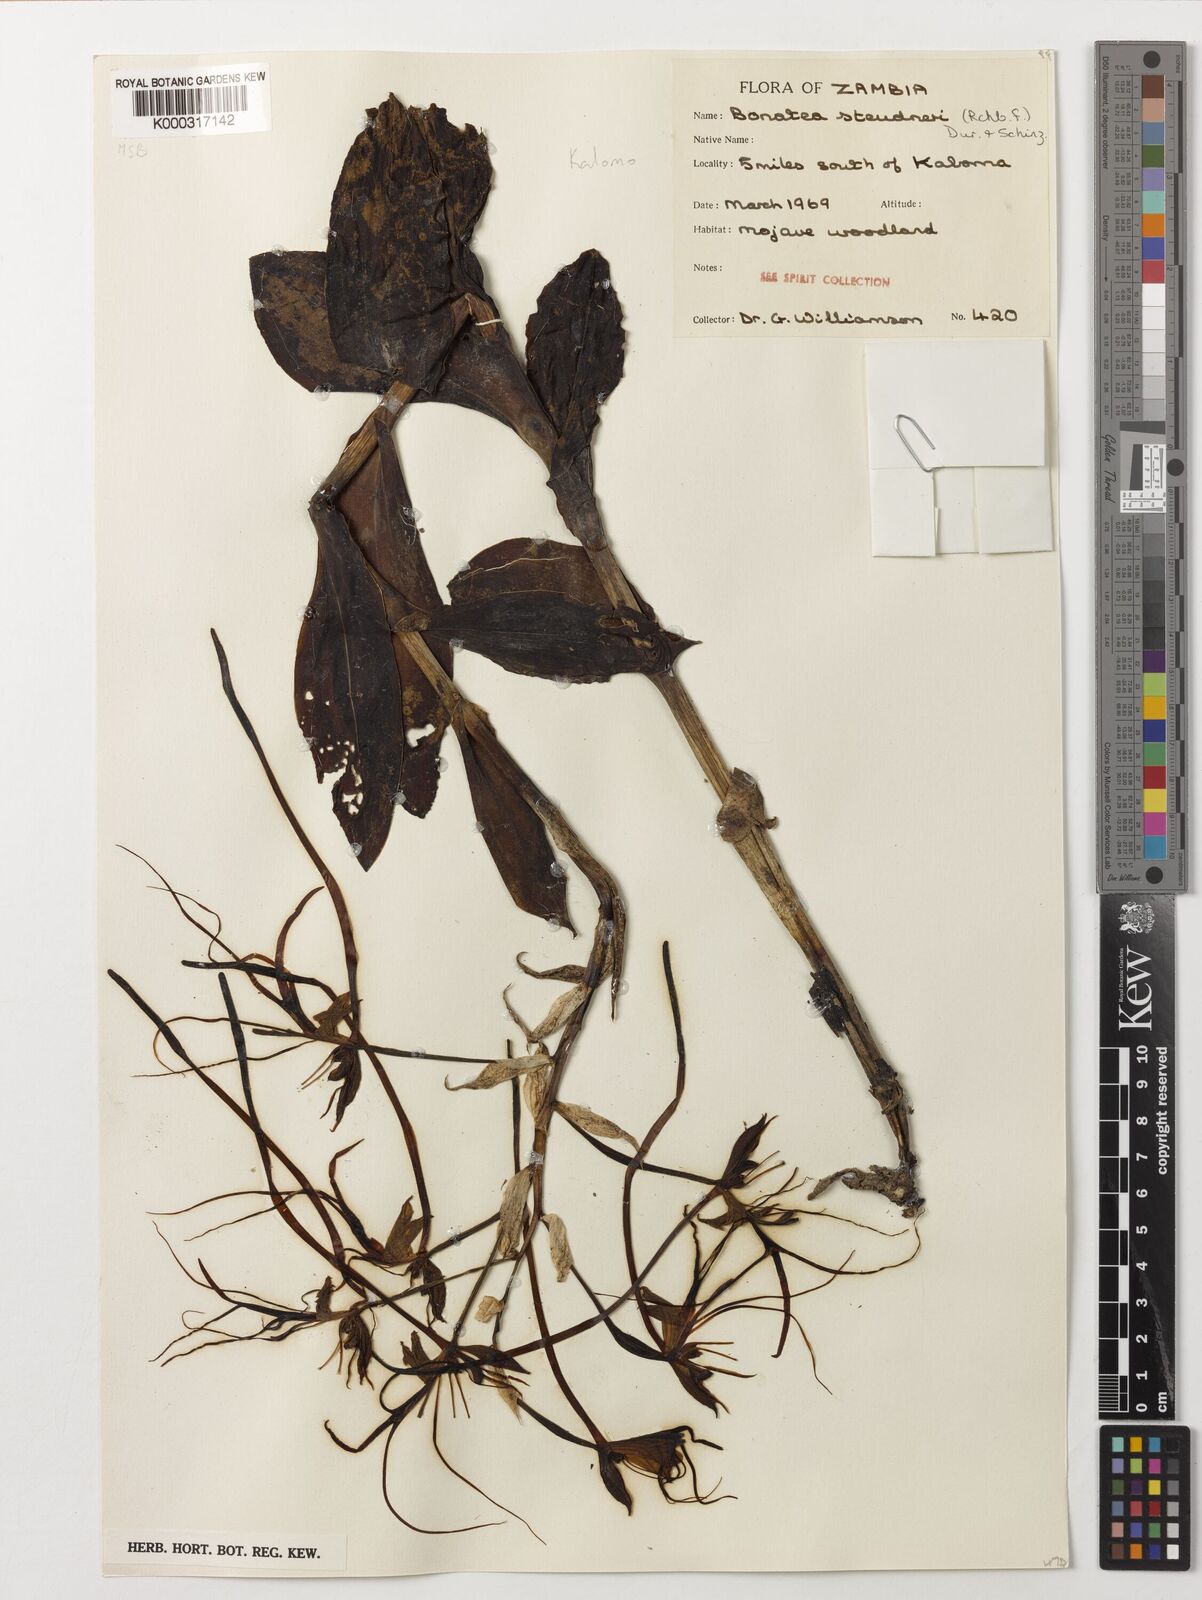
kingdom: Plantae
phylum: Tracheophyta
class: Liliopsida
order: Asparagales
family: Orchidaceae
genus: Bonatea
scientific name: Bonatea steudneri
